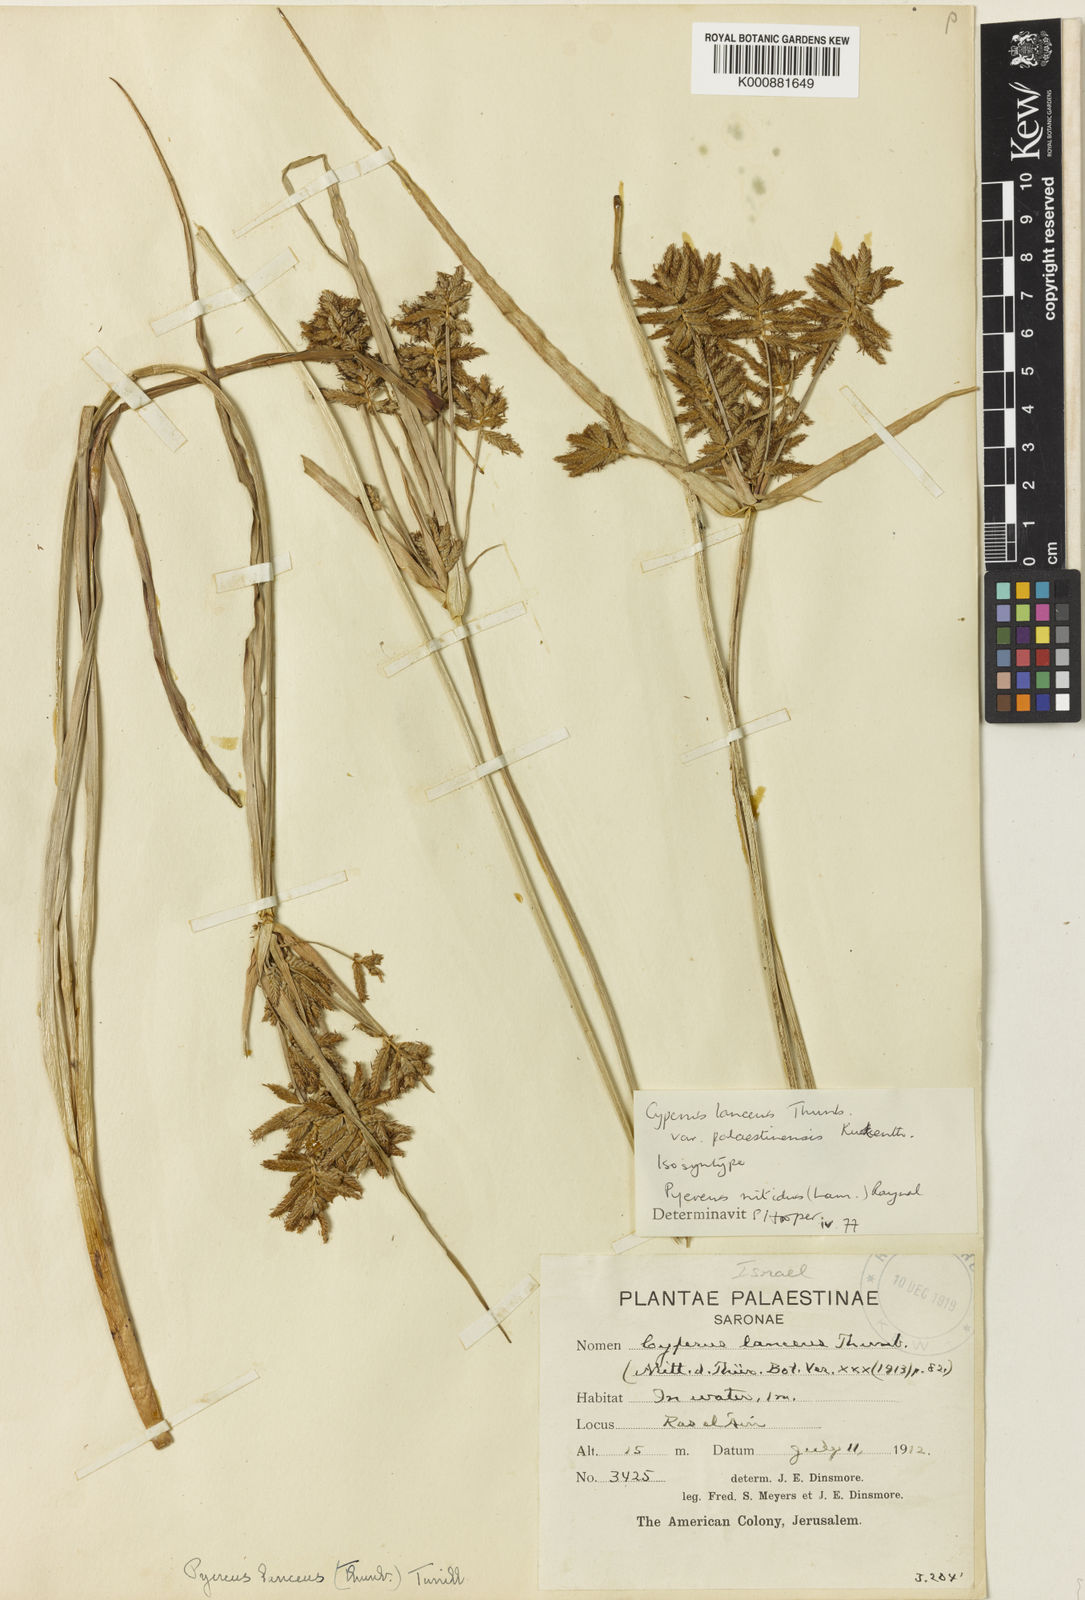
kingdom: Plantae
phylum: Tracheophyta
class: Liliopsida
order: Poales
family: Cyperaceae
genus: Cyperus
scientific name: Cyperus nitidus
